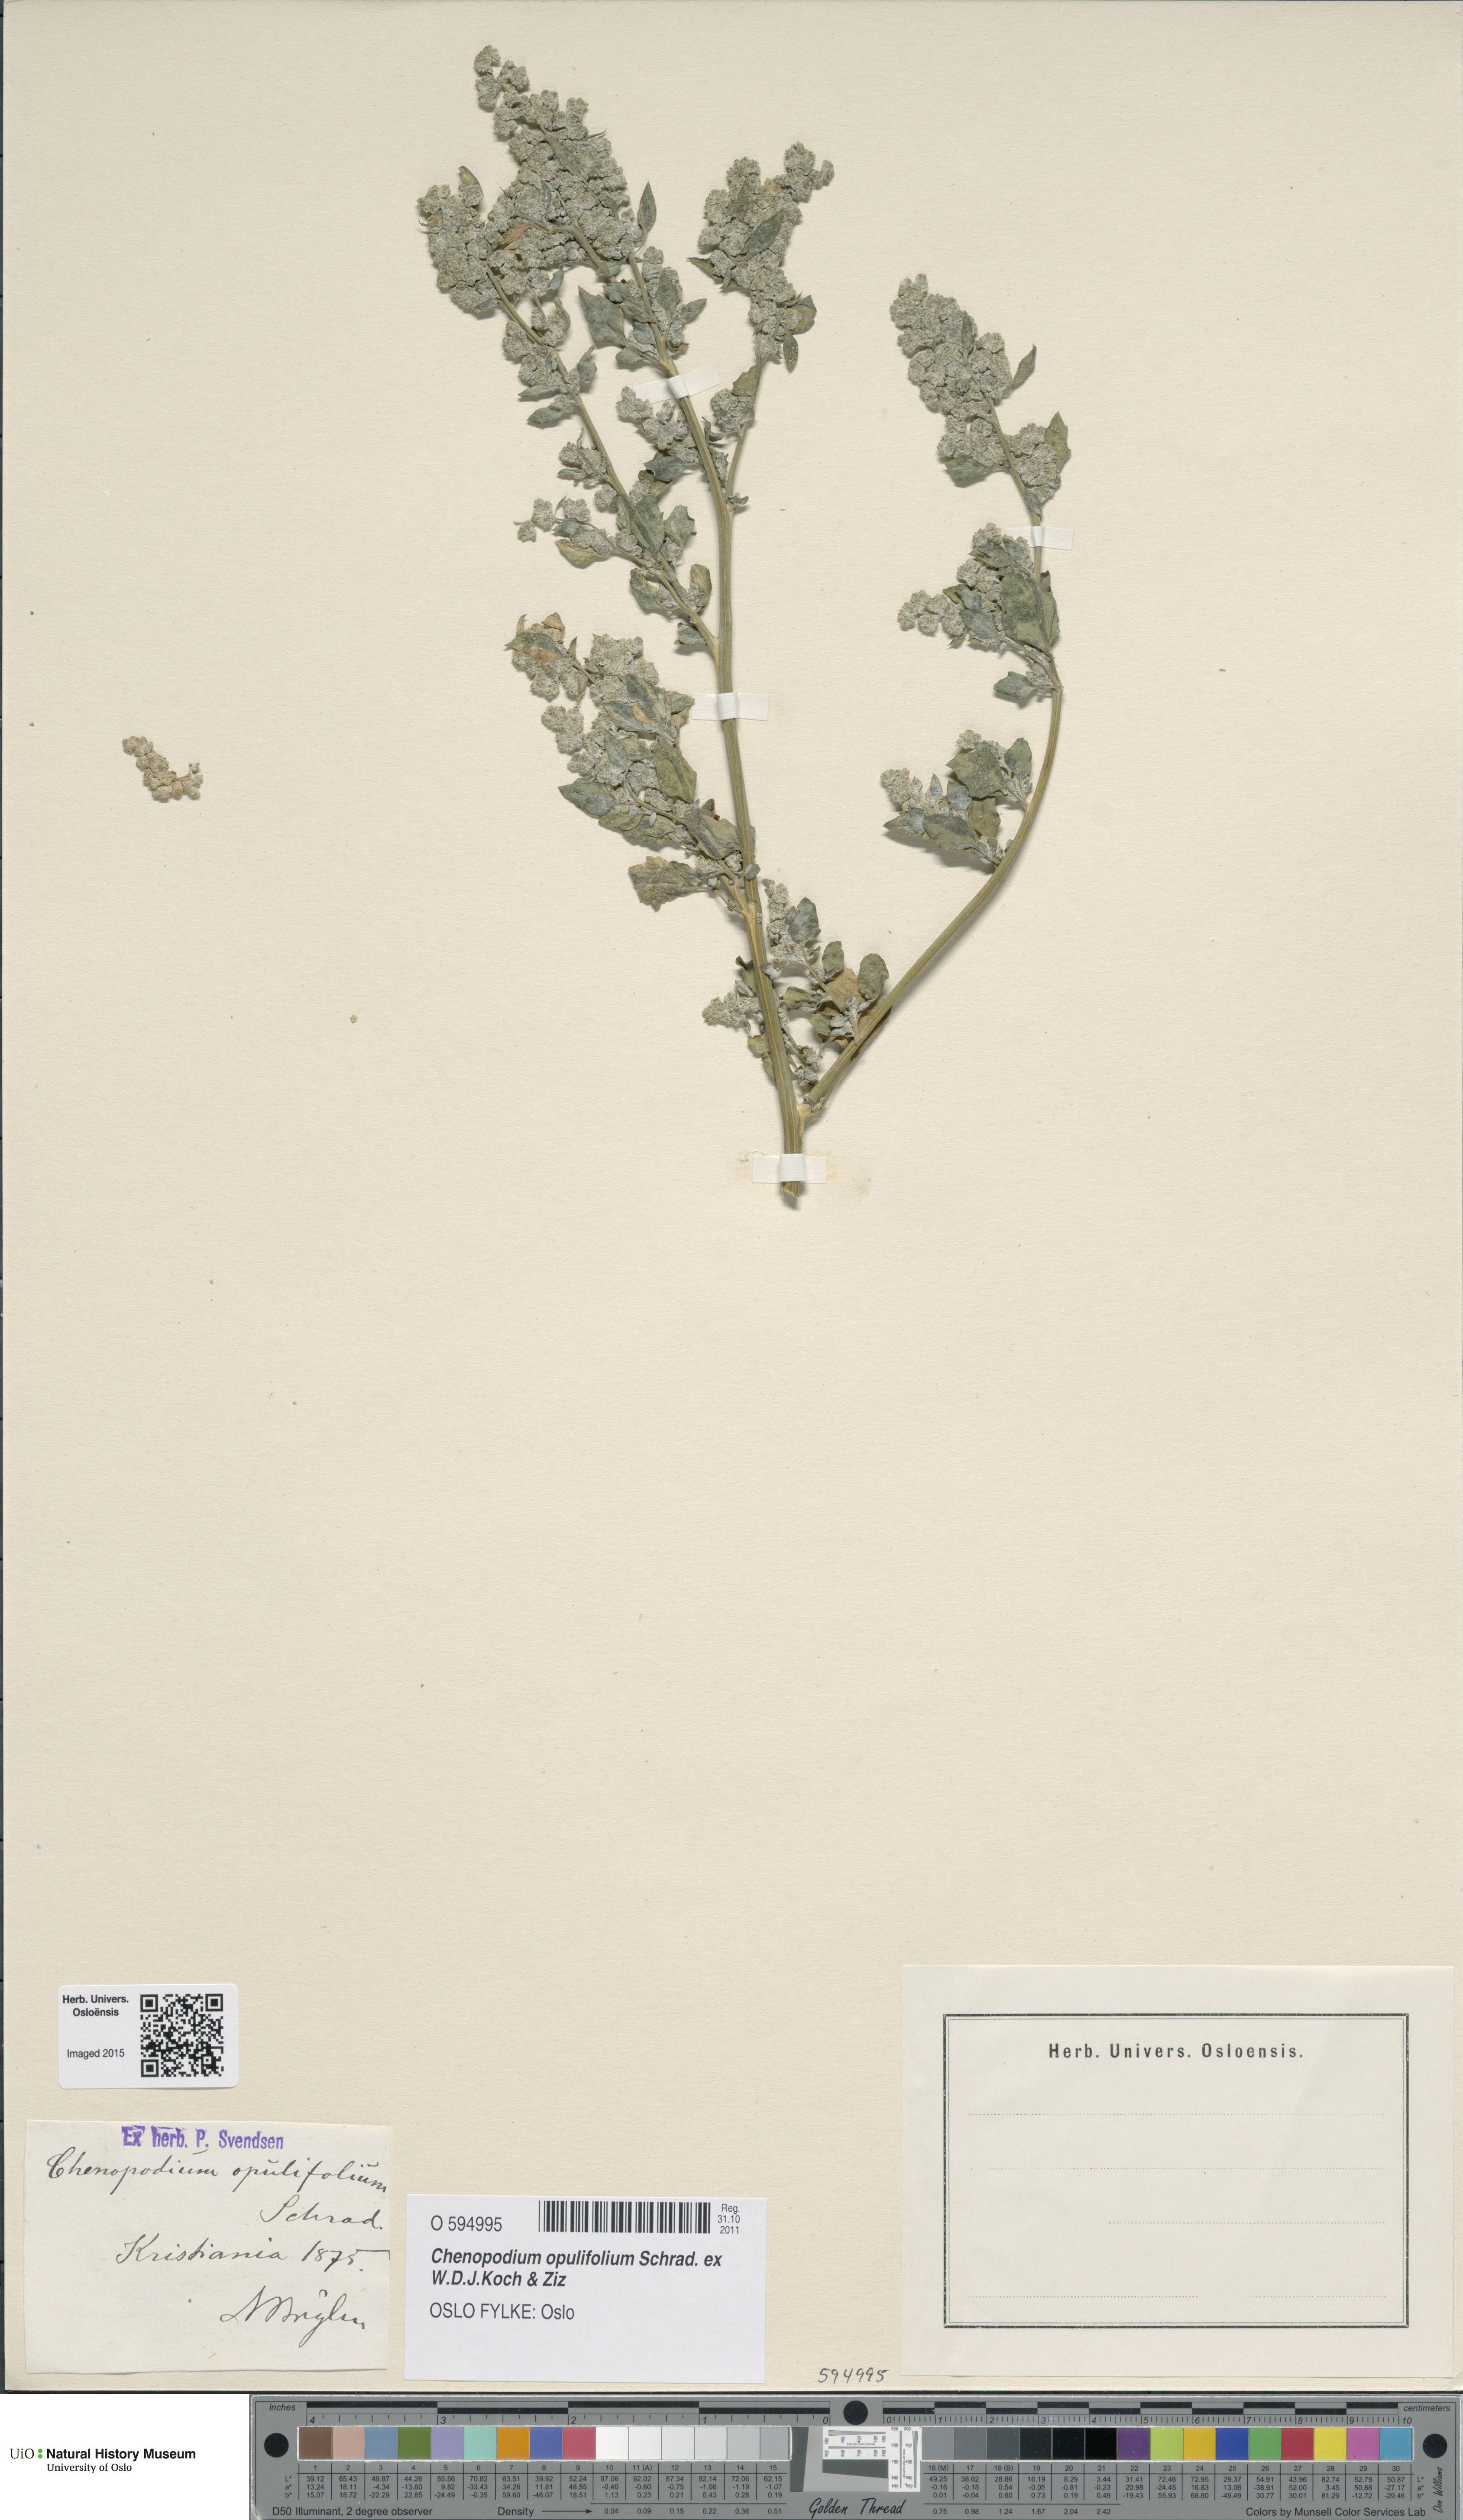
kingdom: Plantae
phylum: Tracheophyta
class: Magnoliopsida
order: Caryophyllales
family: Amaranthaceae
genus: Chenopodium
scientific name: Chenopodium opulifolium
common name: Grey goosefoot
